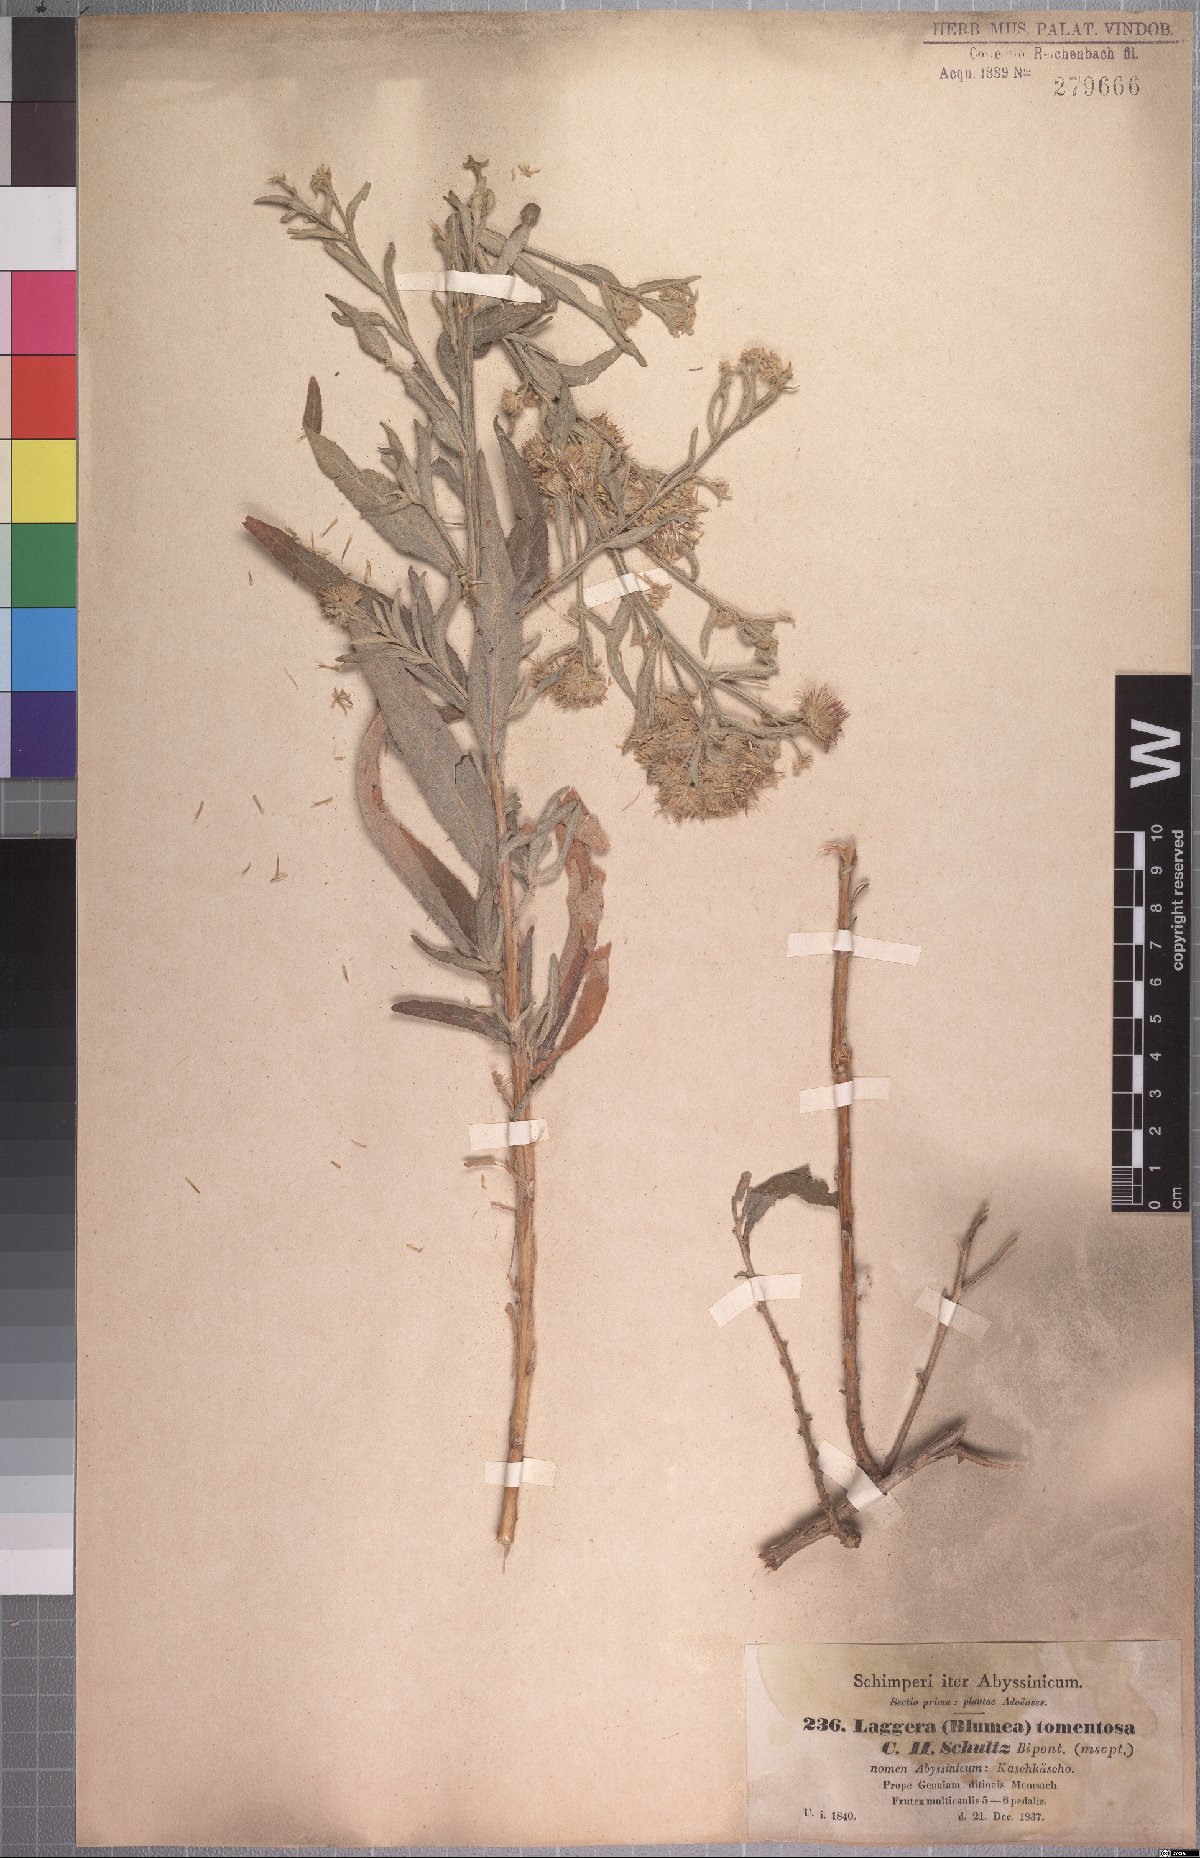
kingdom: Plantae
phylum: Tracheophyta
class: Magnoliopsida
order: Asterales
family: Asteraceae
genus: Laggera
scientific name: Laggera tomentosa
